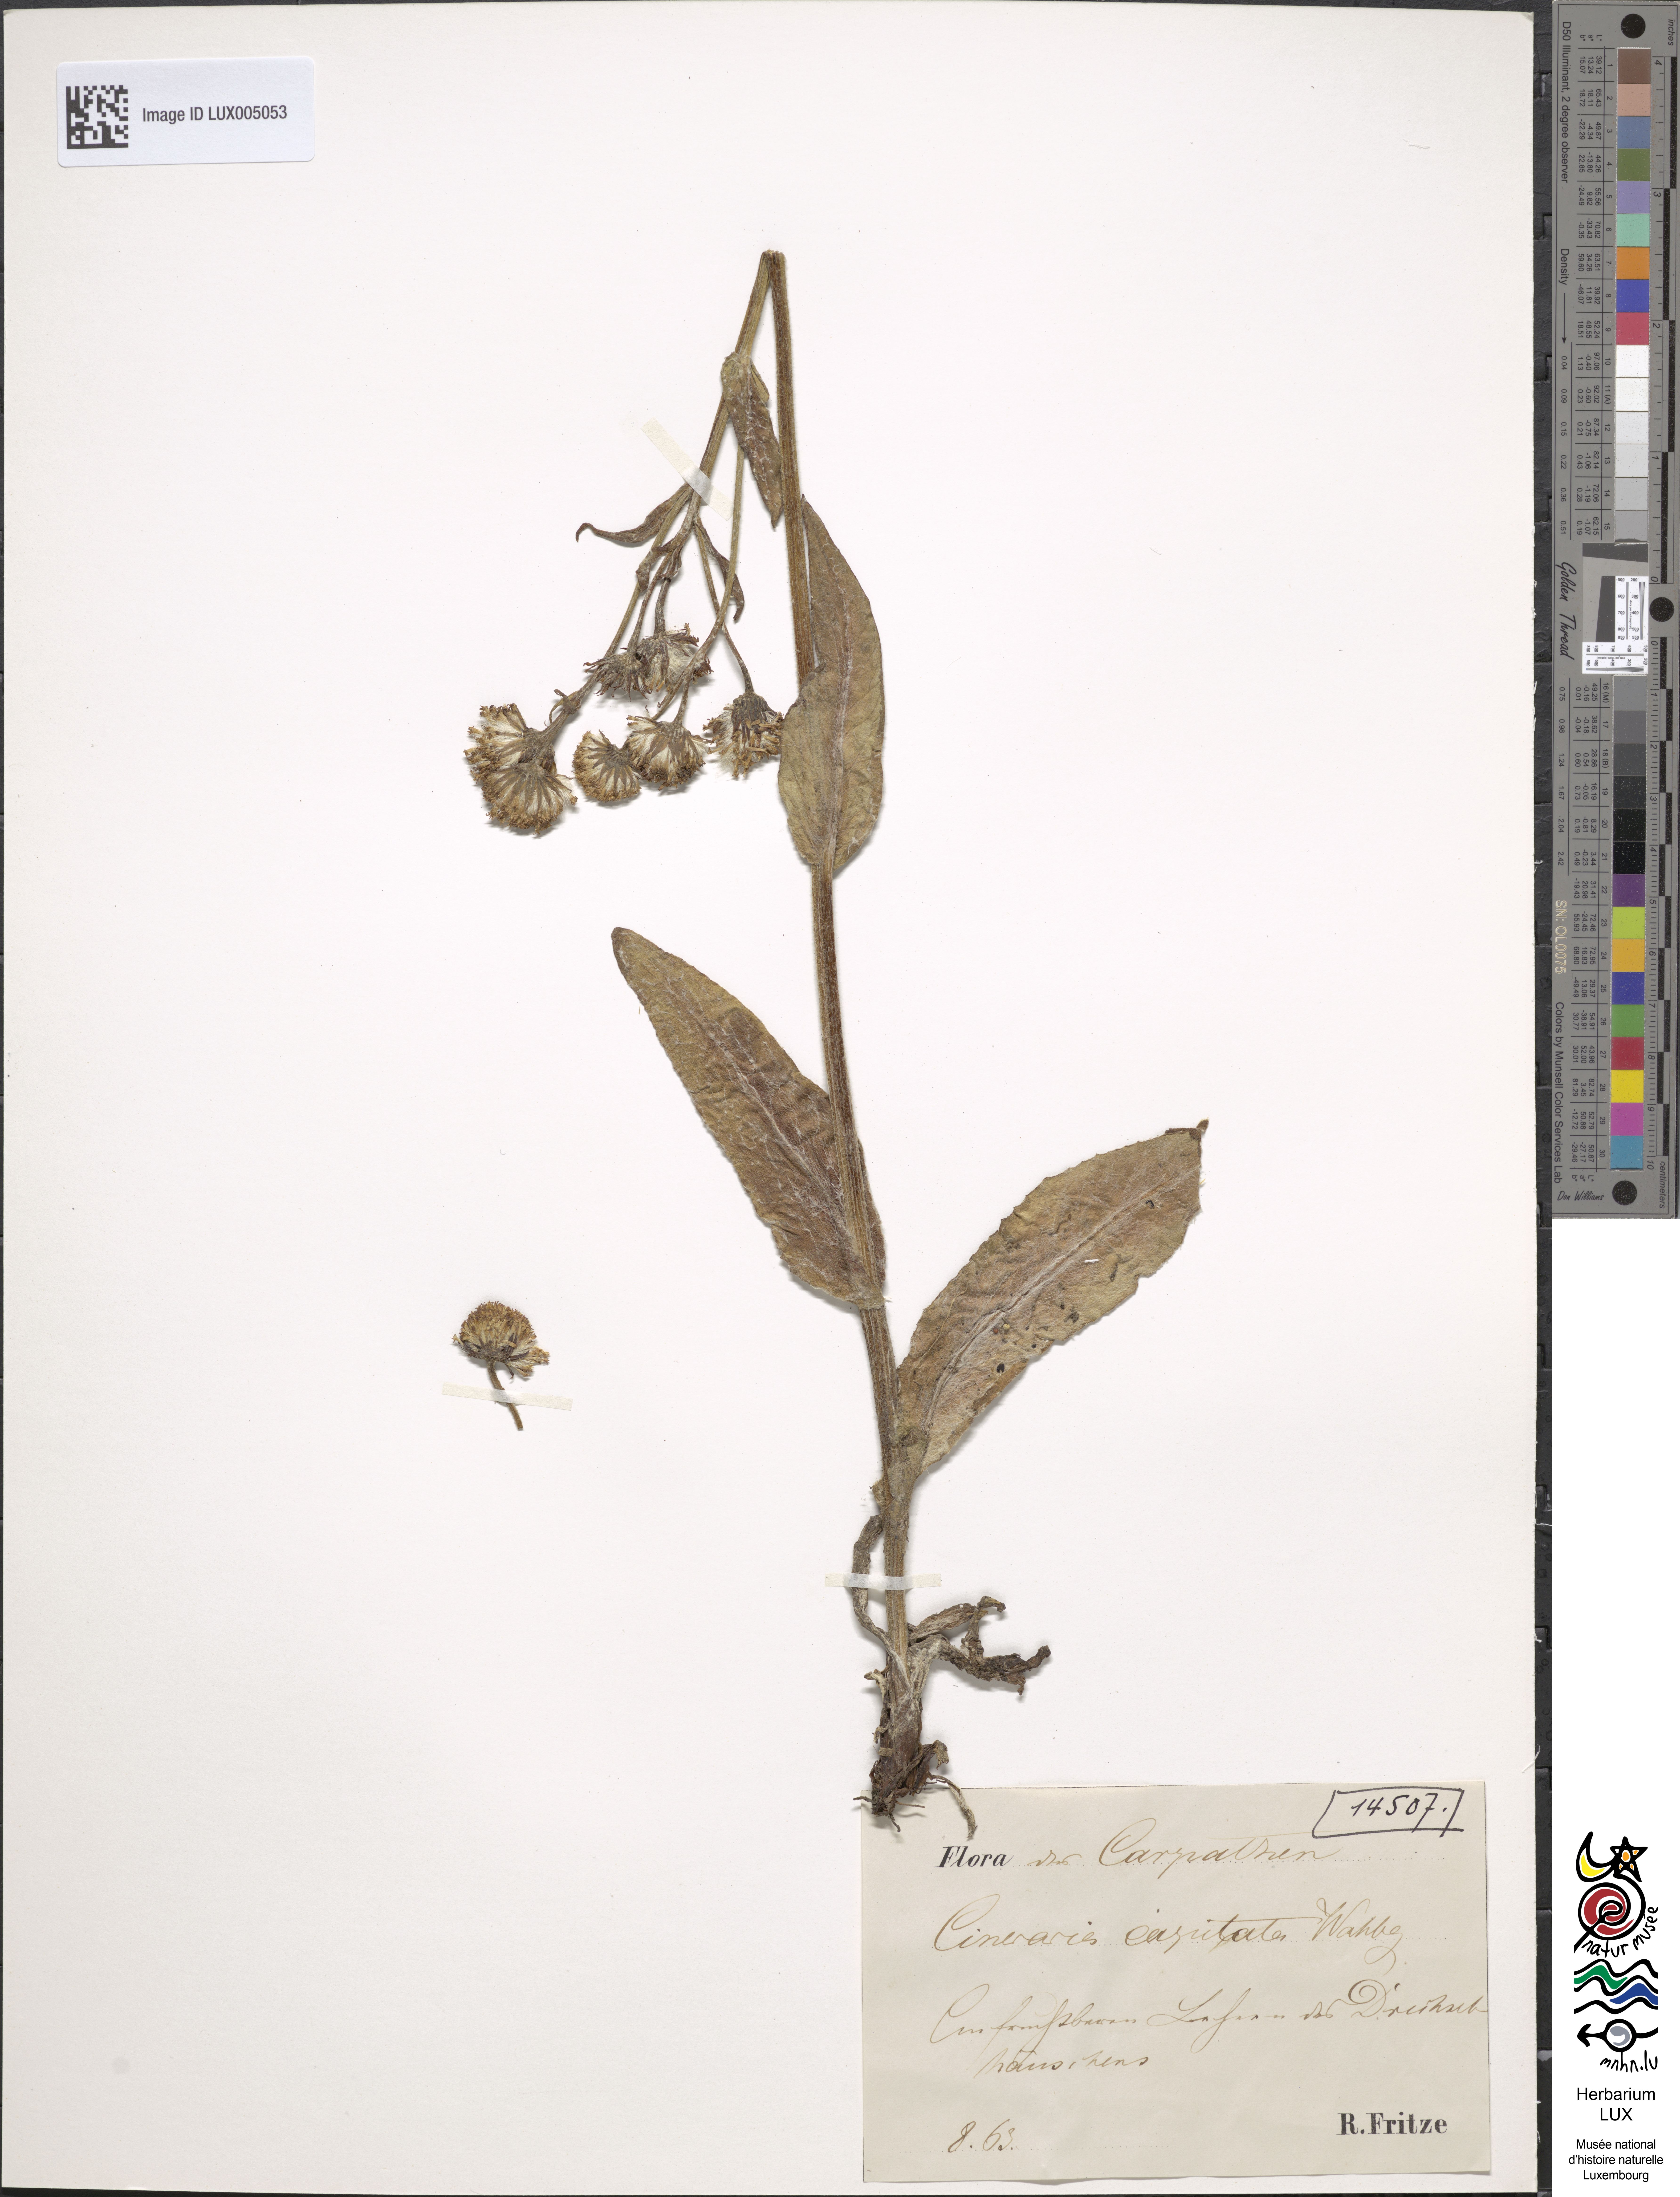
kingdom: Plantae
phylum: Tracheophyta
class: Magnoliopsida
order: Asterales
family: Asteraceae
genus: Tephroseris
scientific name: Tephroseris integrifolia
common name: Field fleawort
